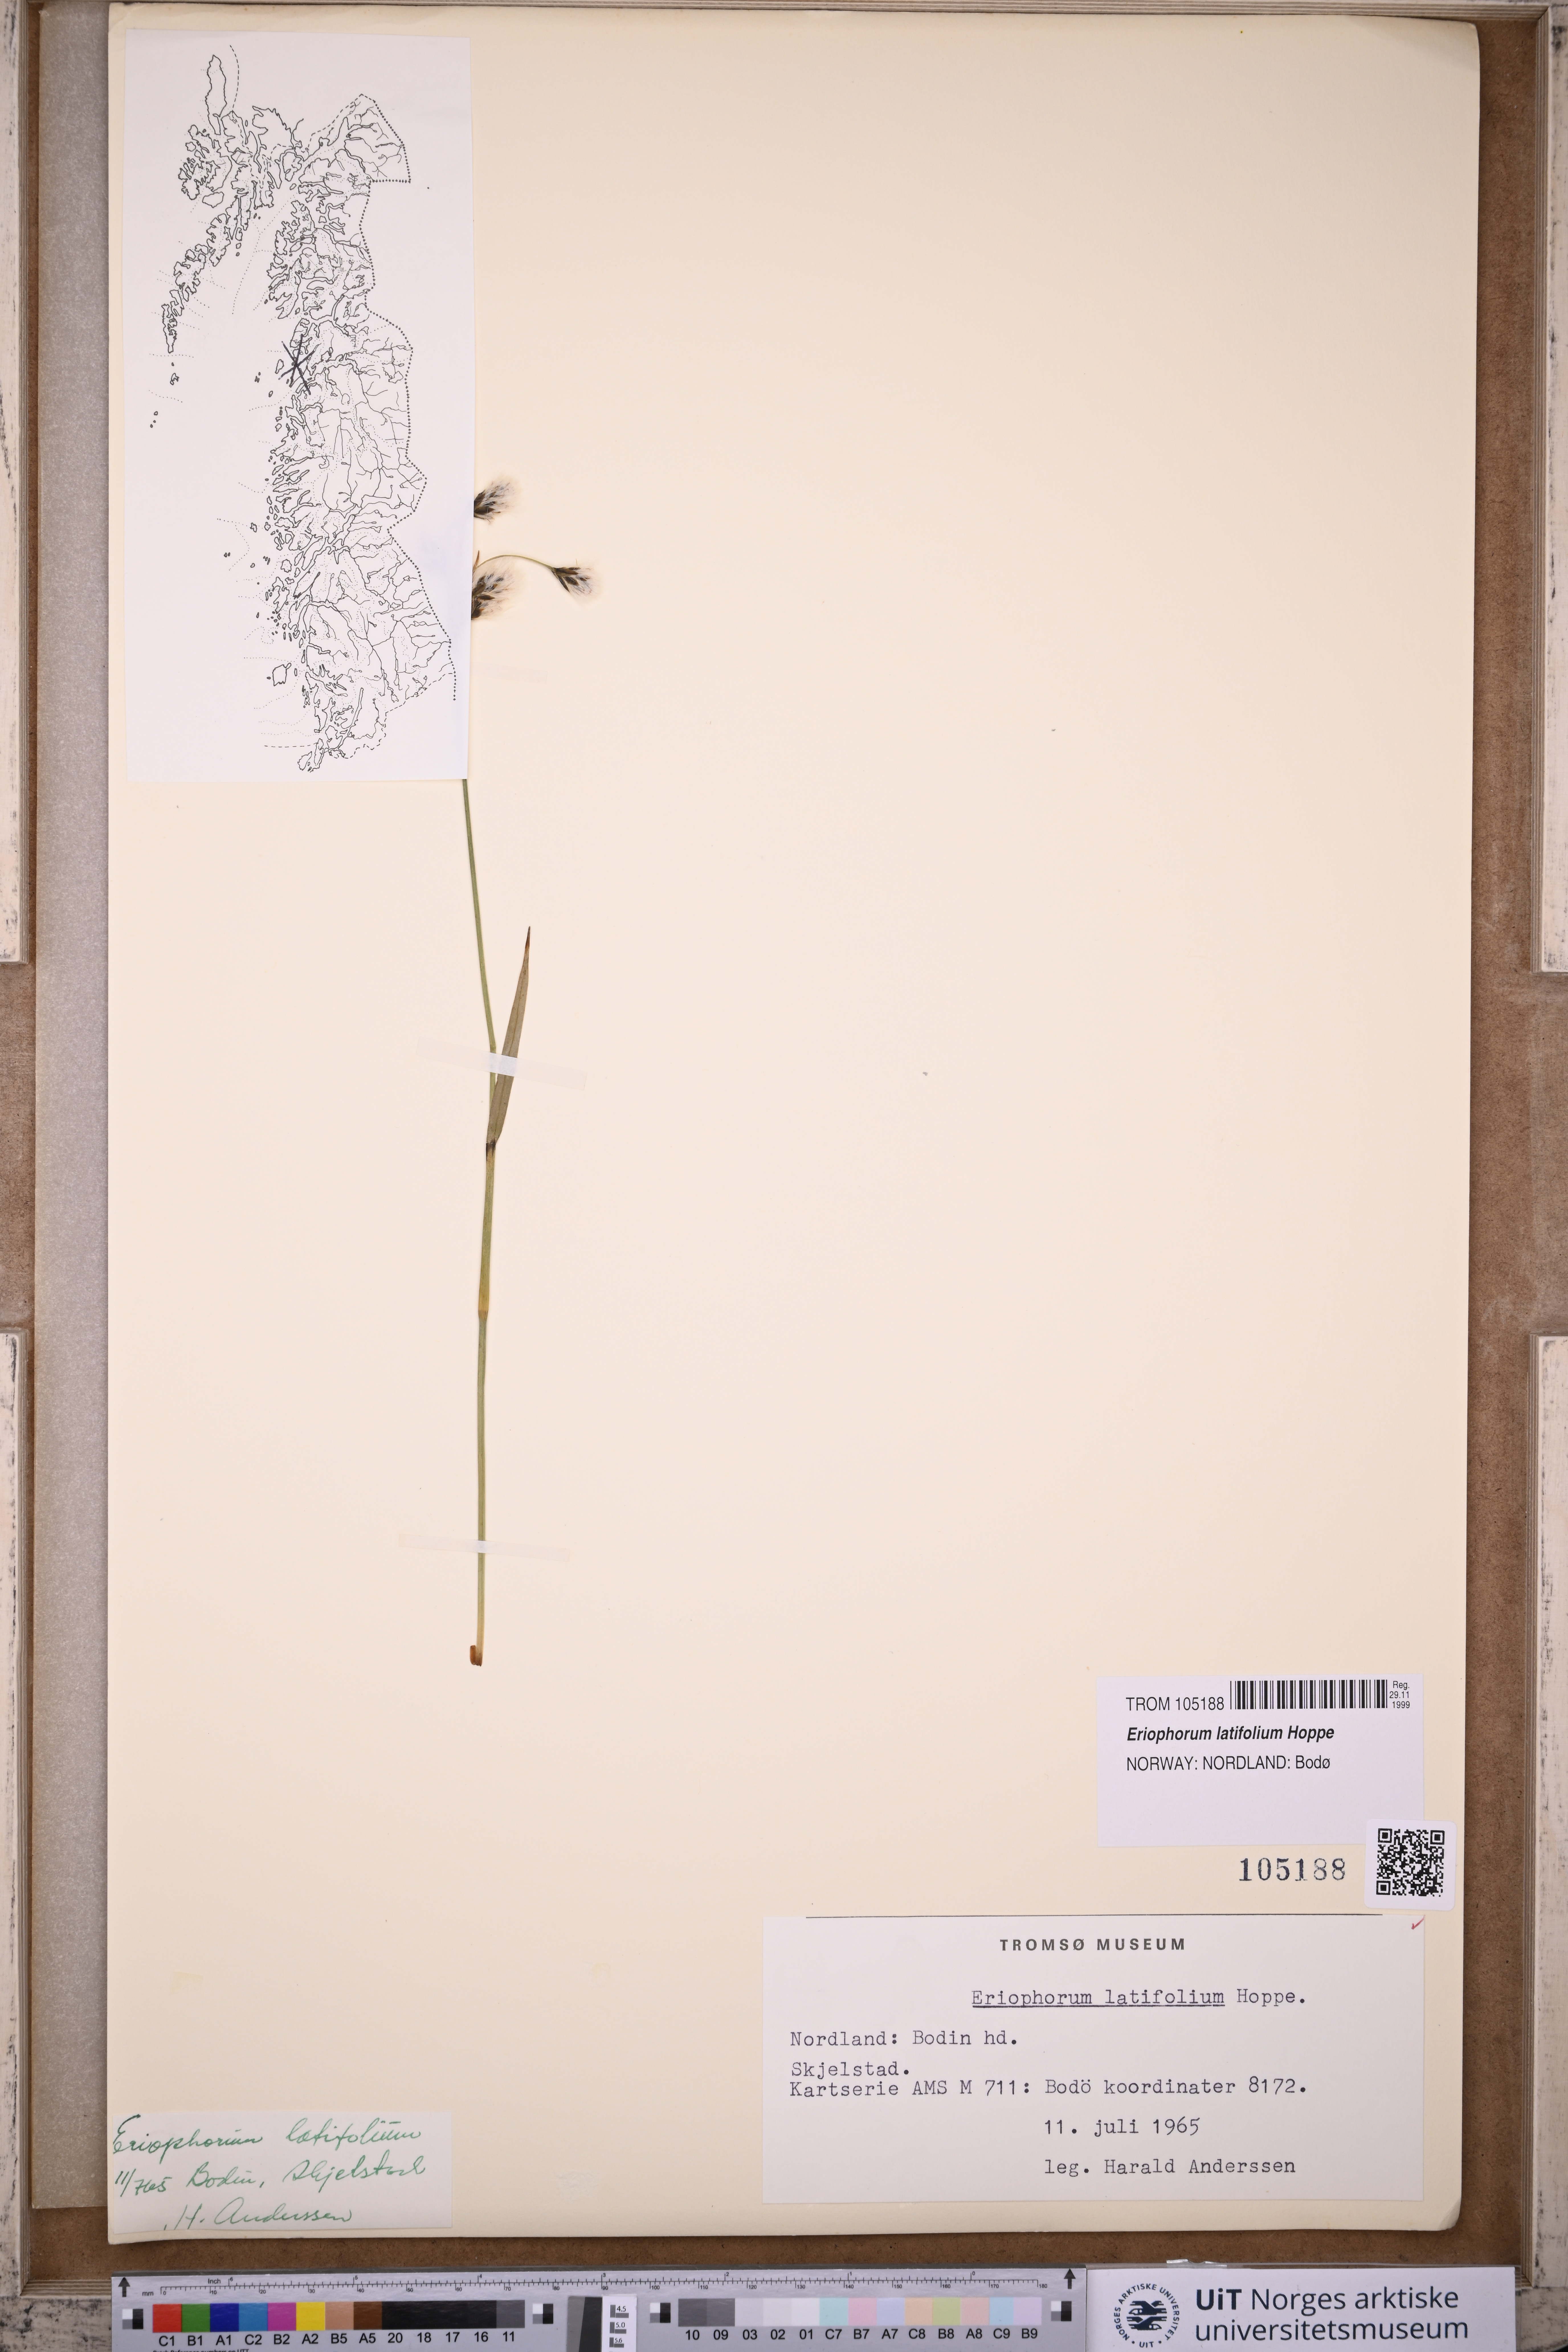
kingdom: Plantae
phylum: Tracheophyta
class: Liliopsida
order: Poales
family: Cyperaceae
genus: Eriophorum
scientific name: Eriophorum latifolium
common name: Broad-leaved cottongrass
